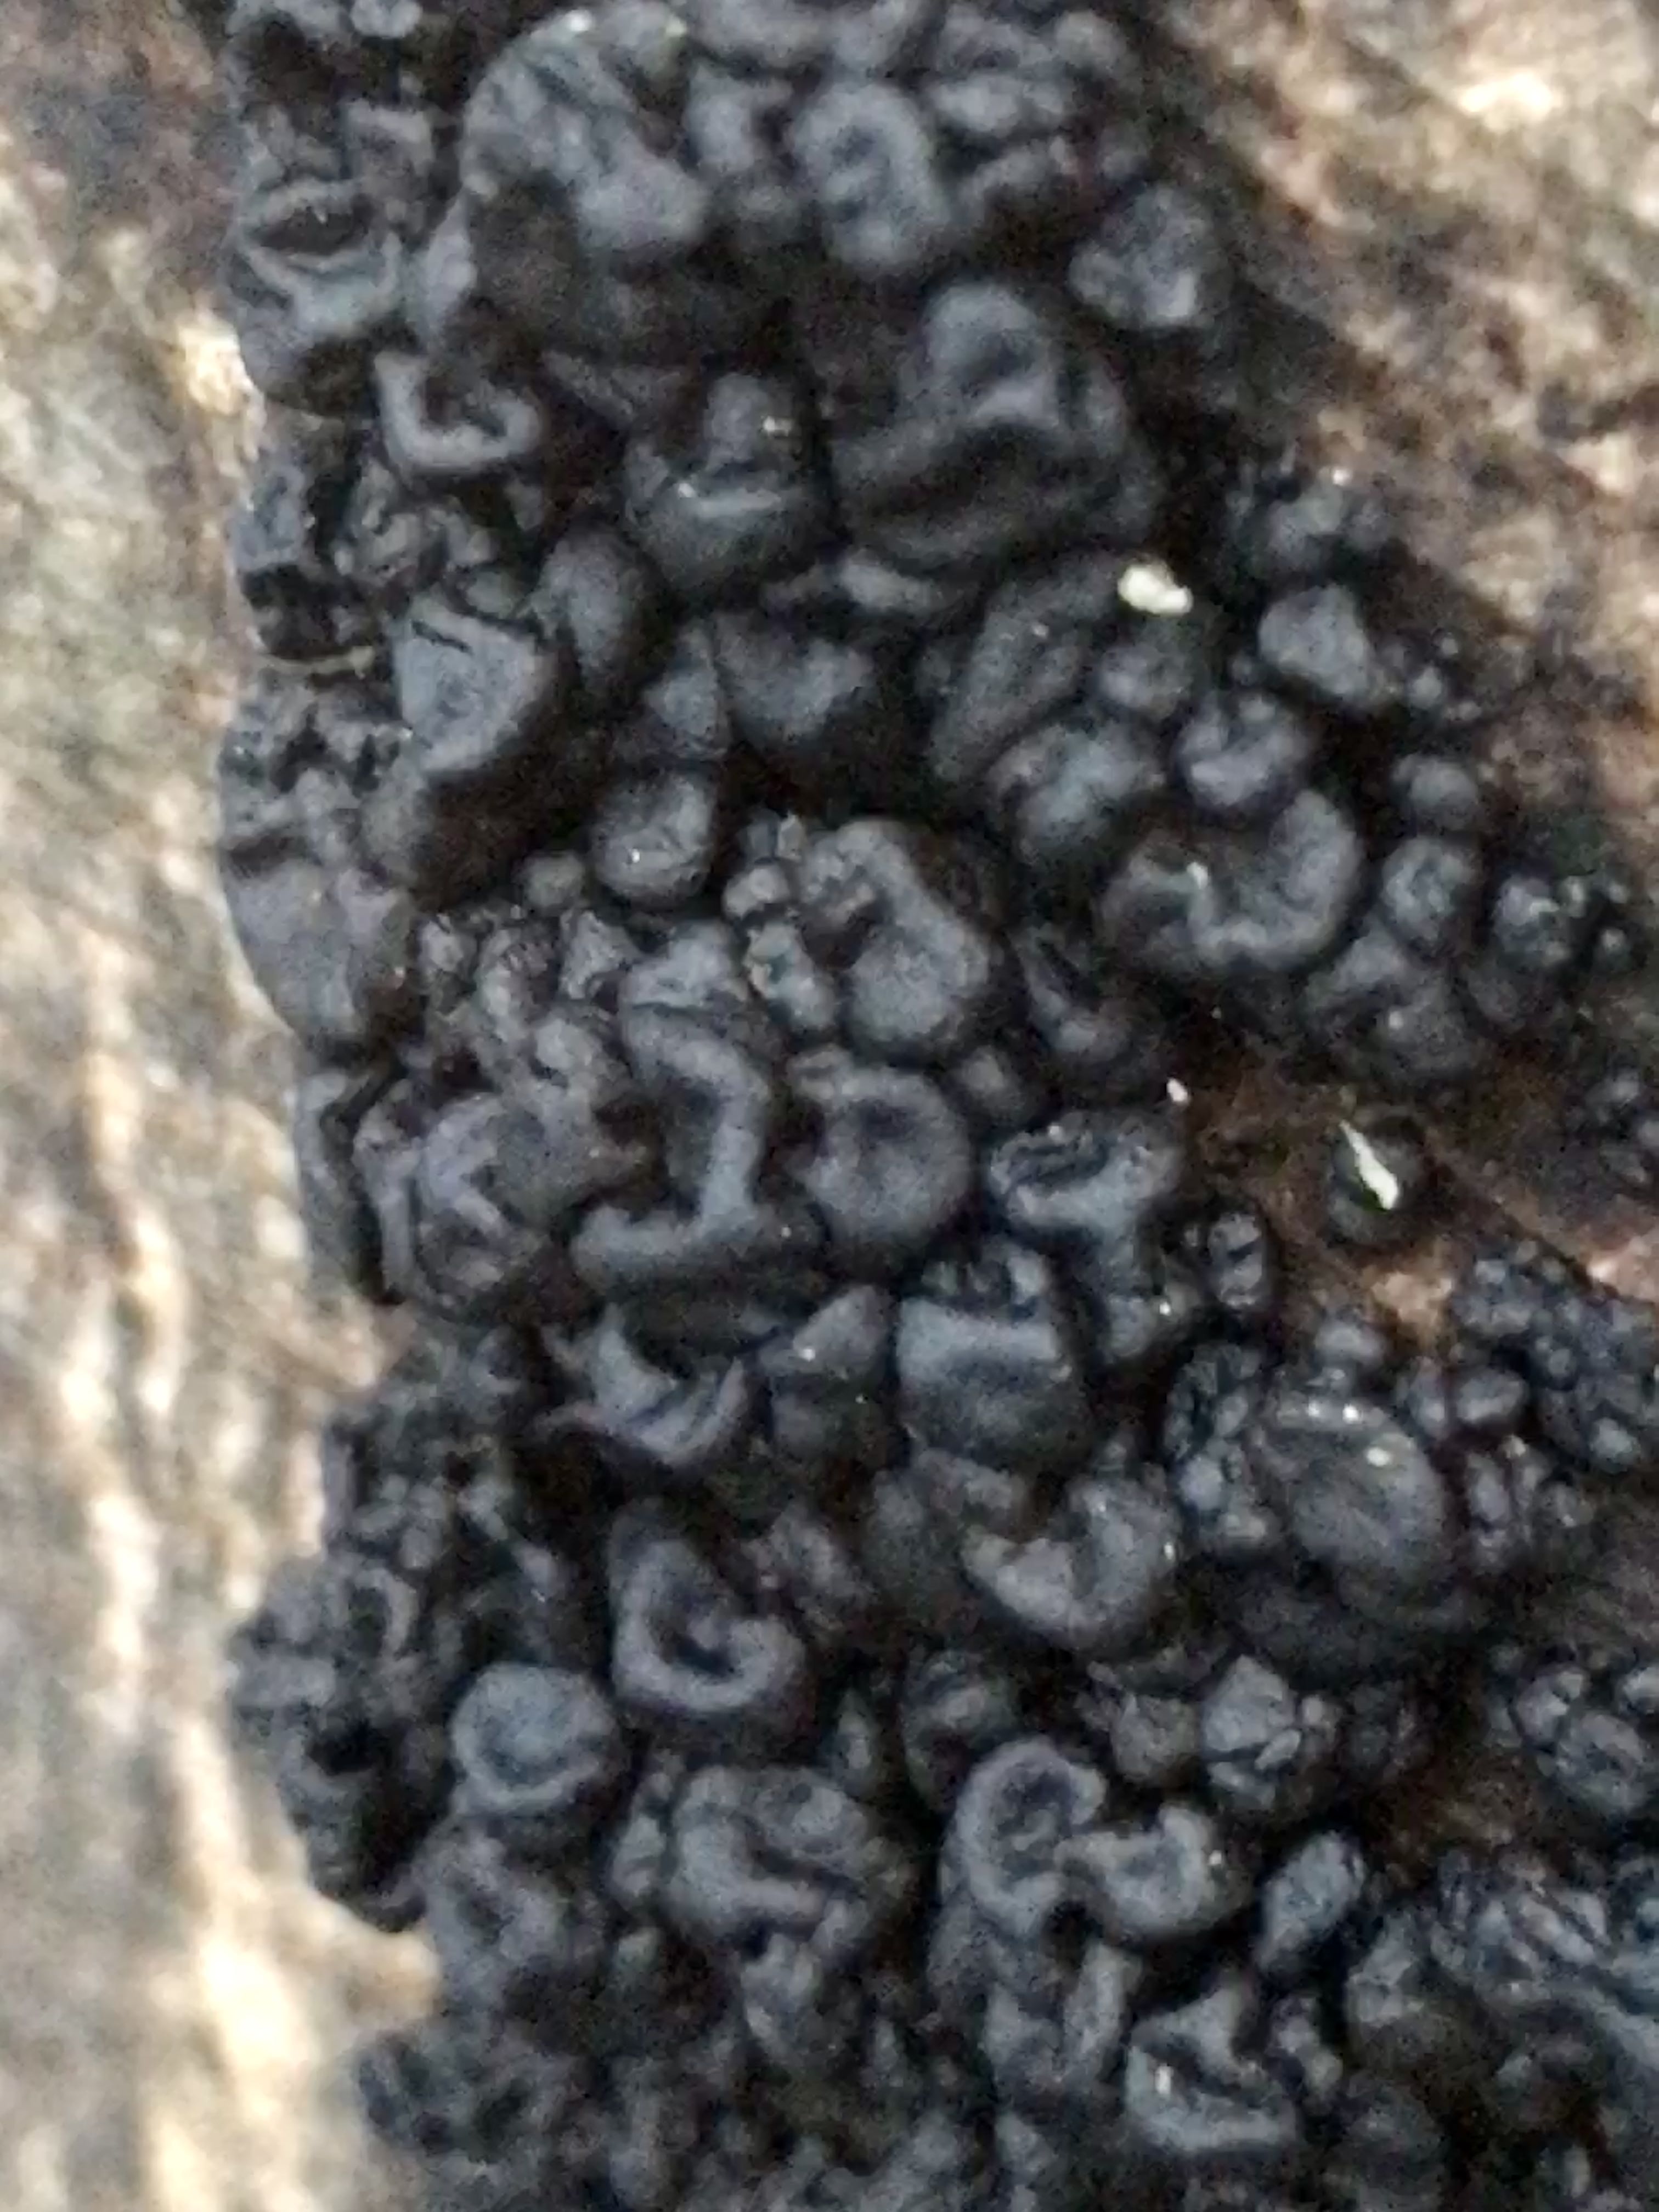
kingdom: Fungi
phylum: Basidiomycota
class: Agaricomycetes
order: Auriculariales
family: Auriculariaceae
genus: Exidia
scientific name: Exidia nigricans
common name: almindelig bævretop
